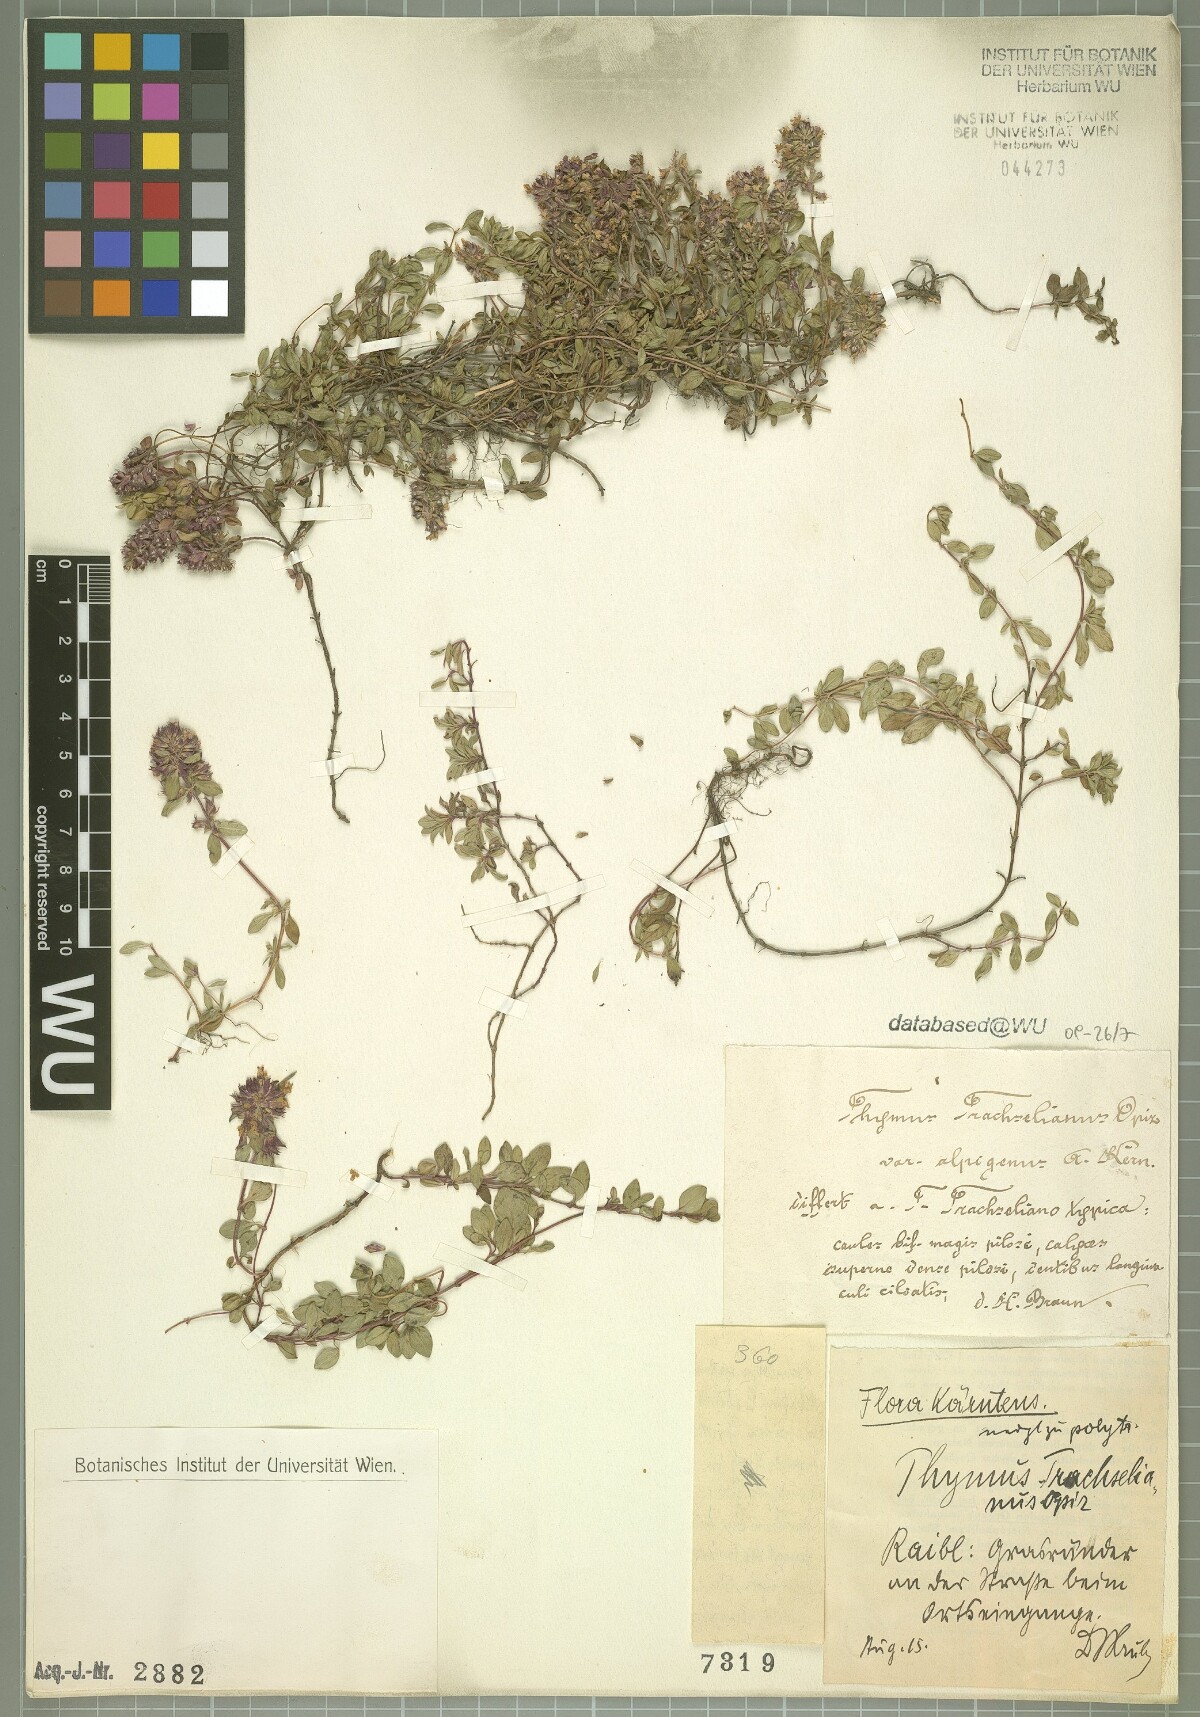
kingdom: Plantae
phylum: Tracheophyta
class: Magnoliopsida
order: Lamiales
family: Lamiaceae
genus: Thymus
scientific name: Thymus praecox
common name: Wild thyme
